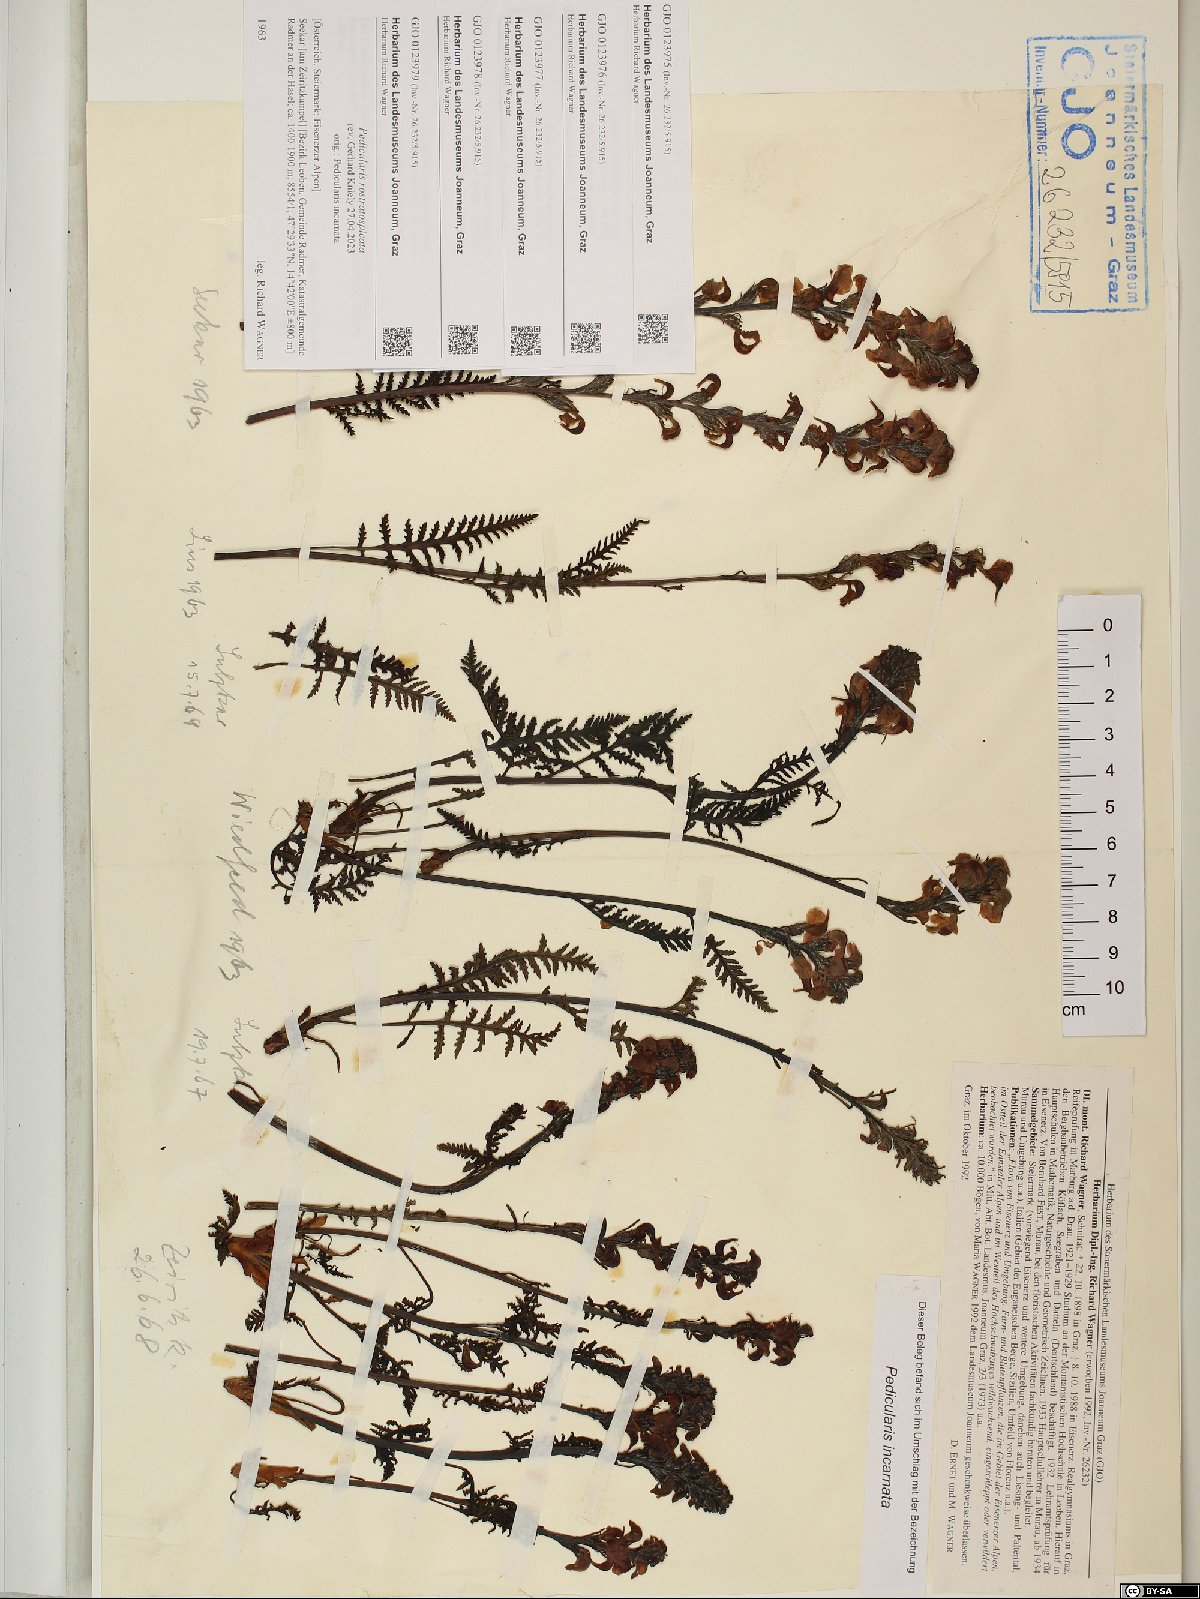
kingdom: Plantae
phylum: Tracheophyta
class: Magnoliopsida
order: Lamiales
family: Orobanchaceae
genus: Pedicularis
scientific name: Pedicularis rostratospicata
